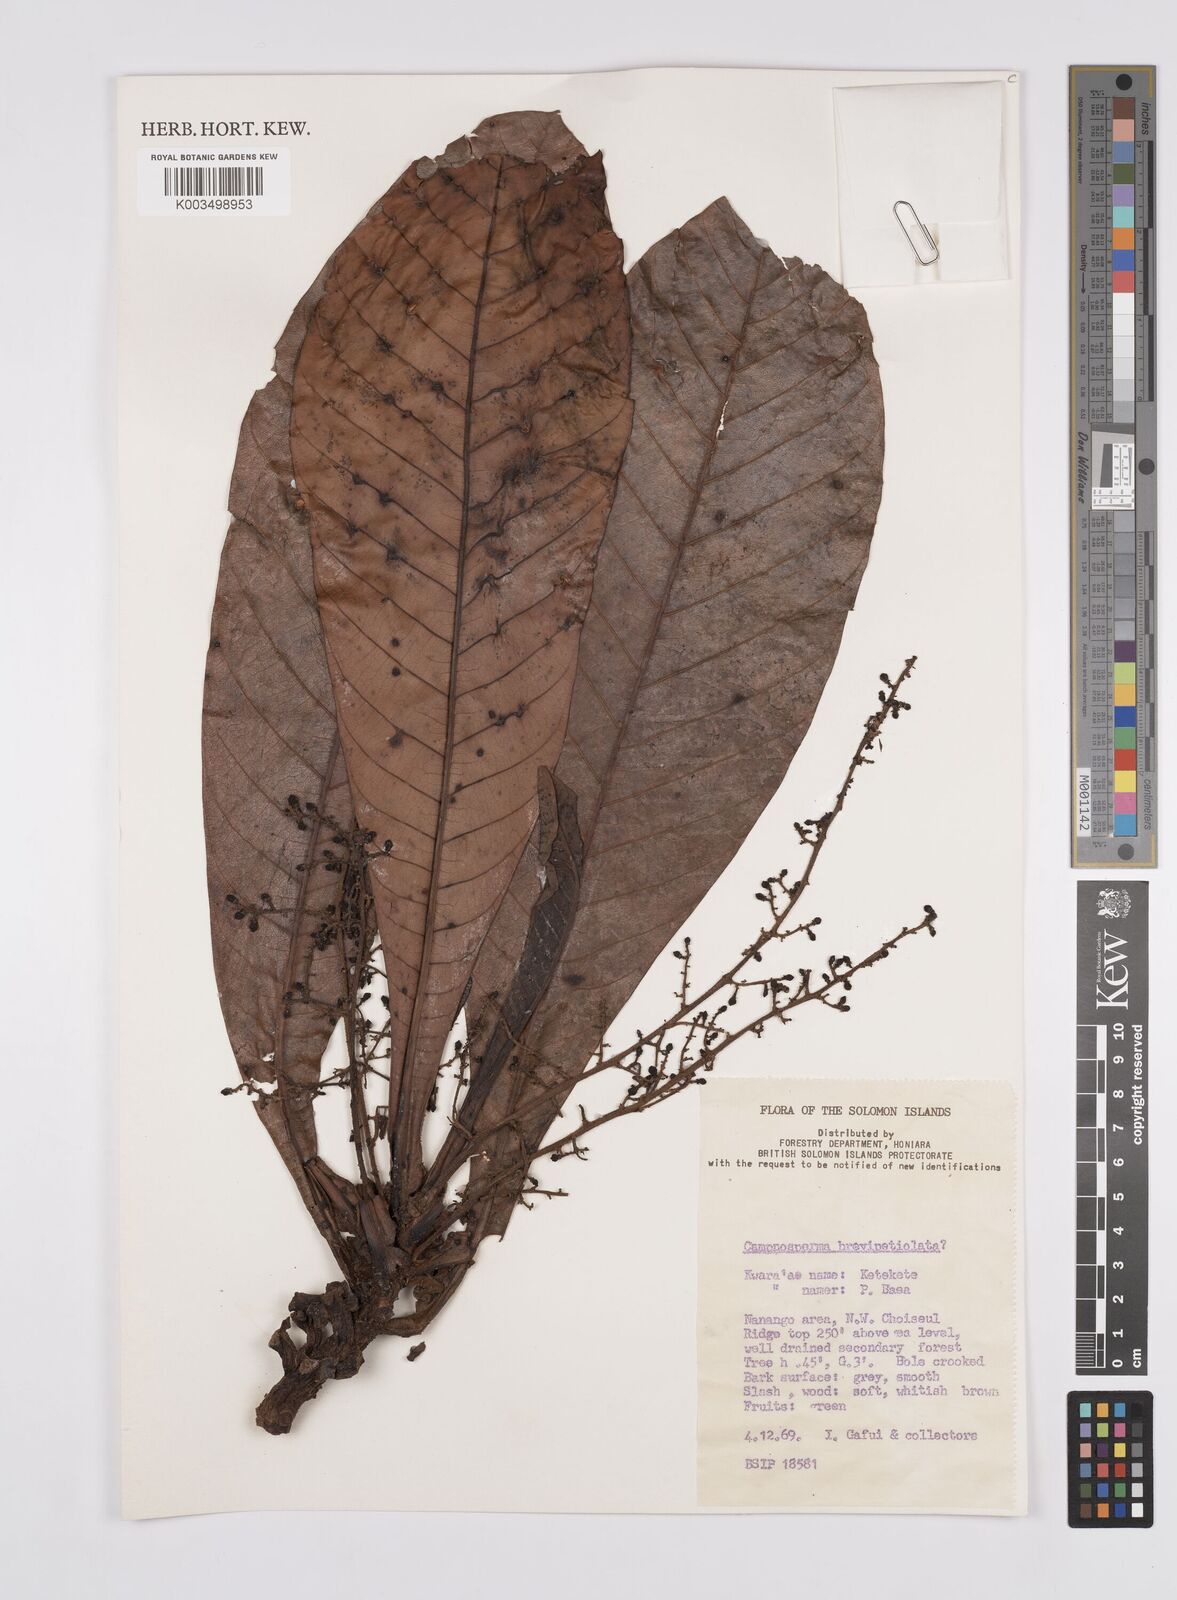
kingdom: Plantae
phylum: Tracheophyta
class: Magnoliopsida
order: Sapindales
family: Anacardiaceae
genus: Campnosperma
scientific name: Campnosperma brevipetiolatum
